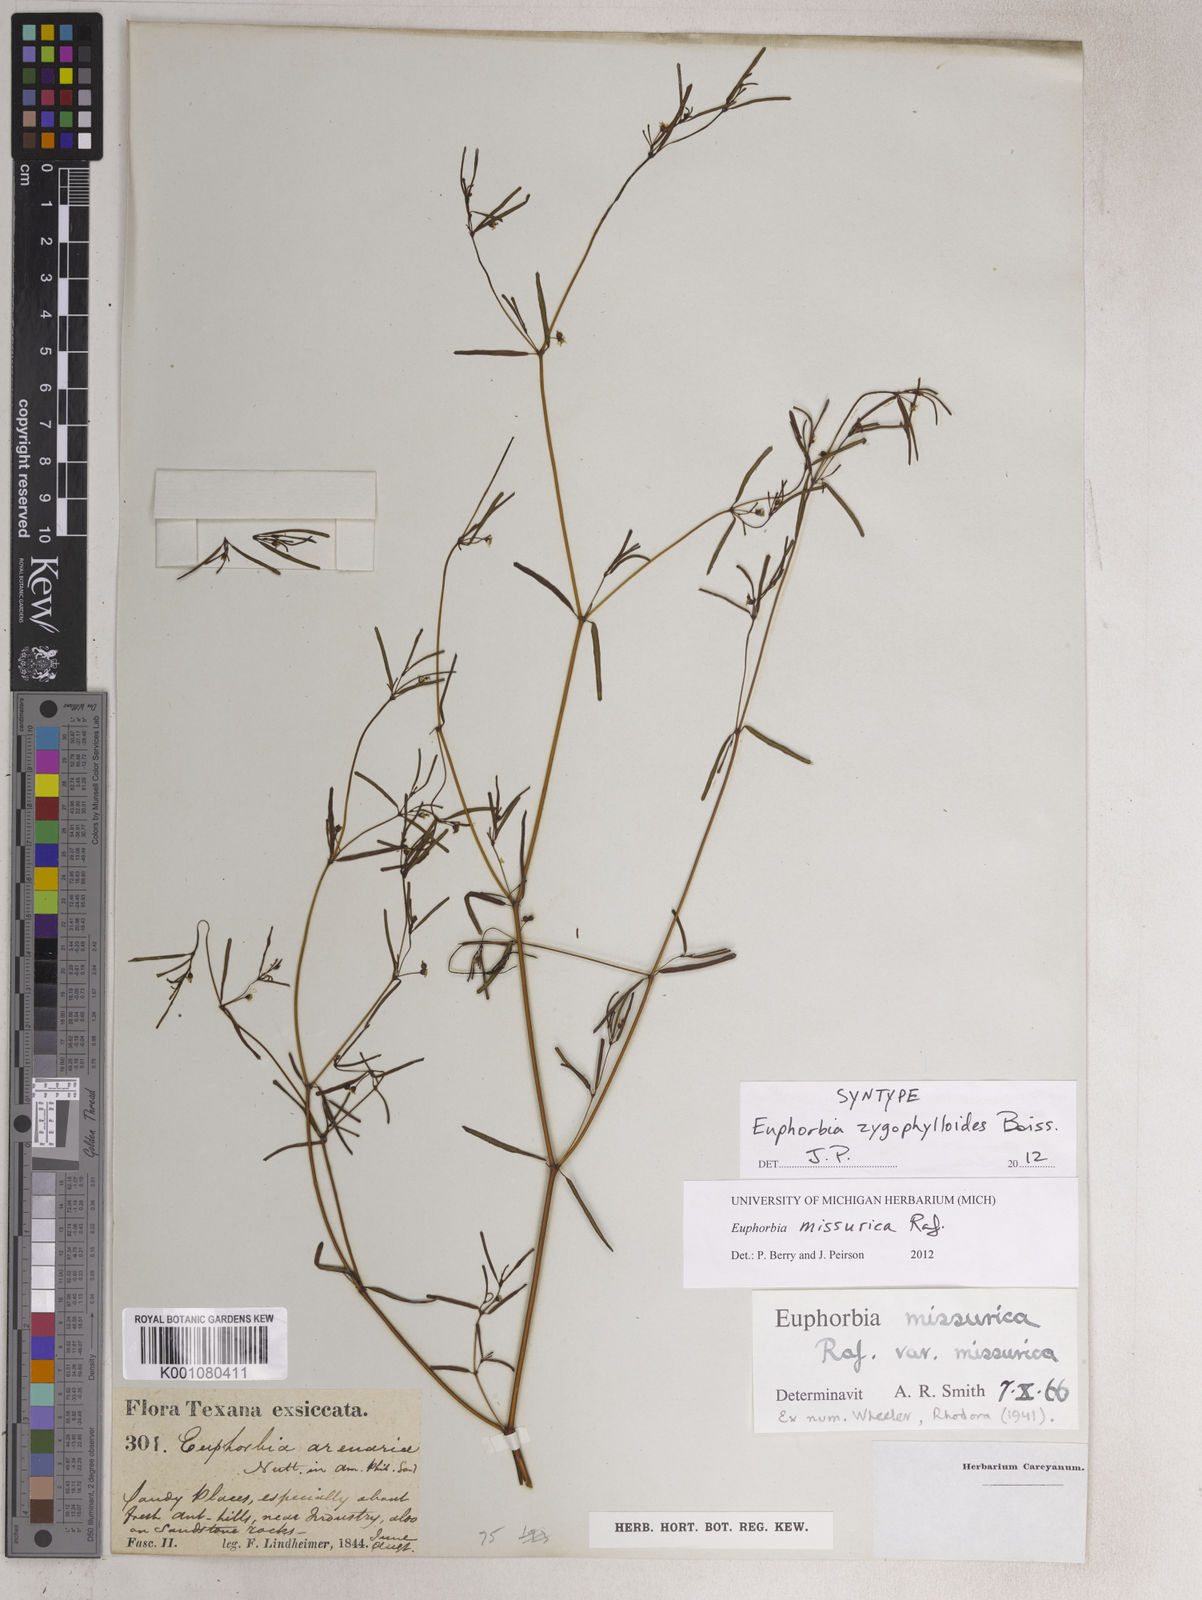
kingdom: Plantae
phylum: Tracheophyta
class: Magnoliopsida
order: Malpighiales
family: Euphorbiaceae
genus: Euphorbia
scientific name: Euphorbia missurica
